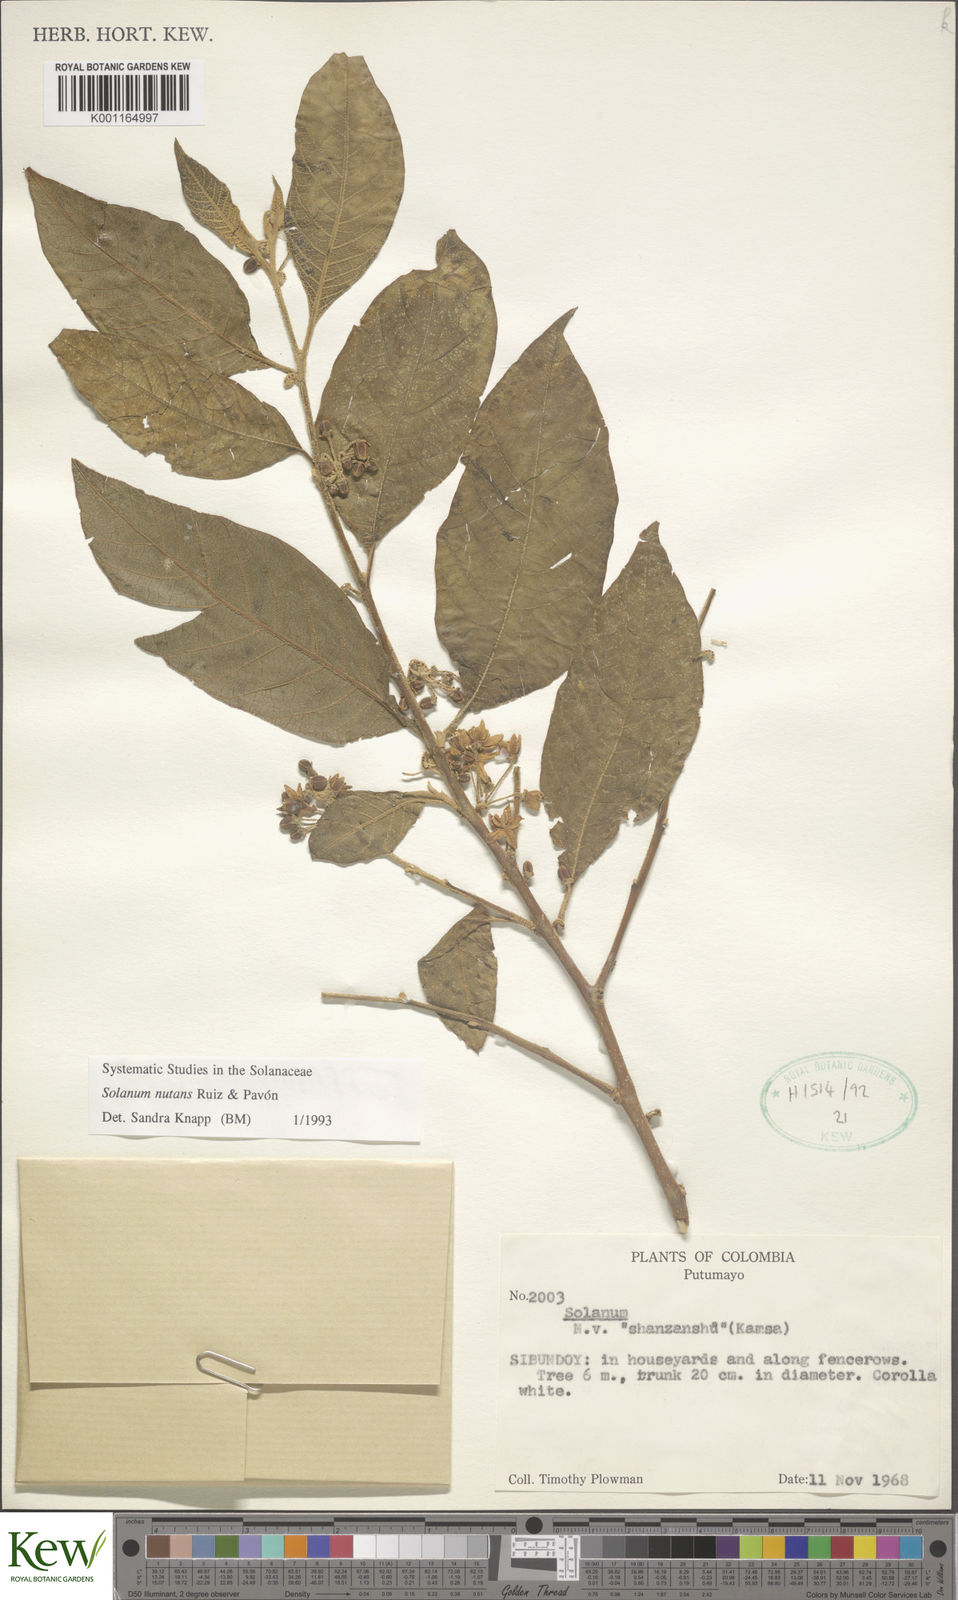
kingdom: Plantae
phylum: Tracheophyta
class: Magnoliopsida
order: Solanales
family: Solanaceae
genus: Solanum
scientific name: Solanum nutans
